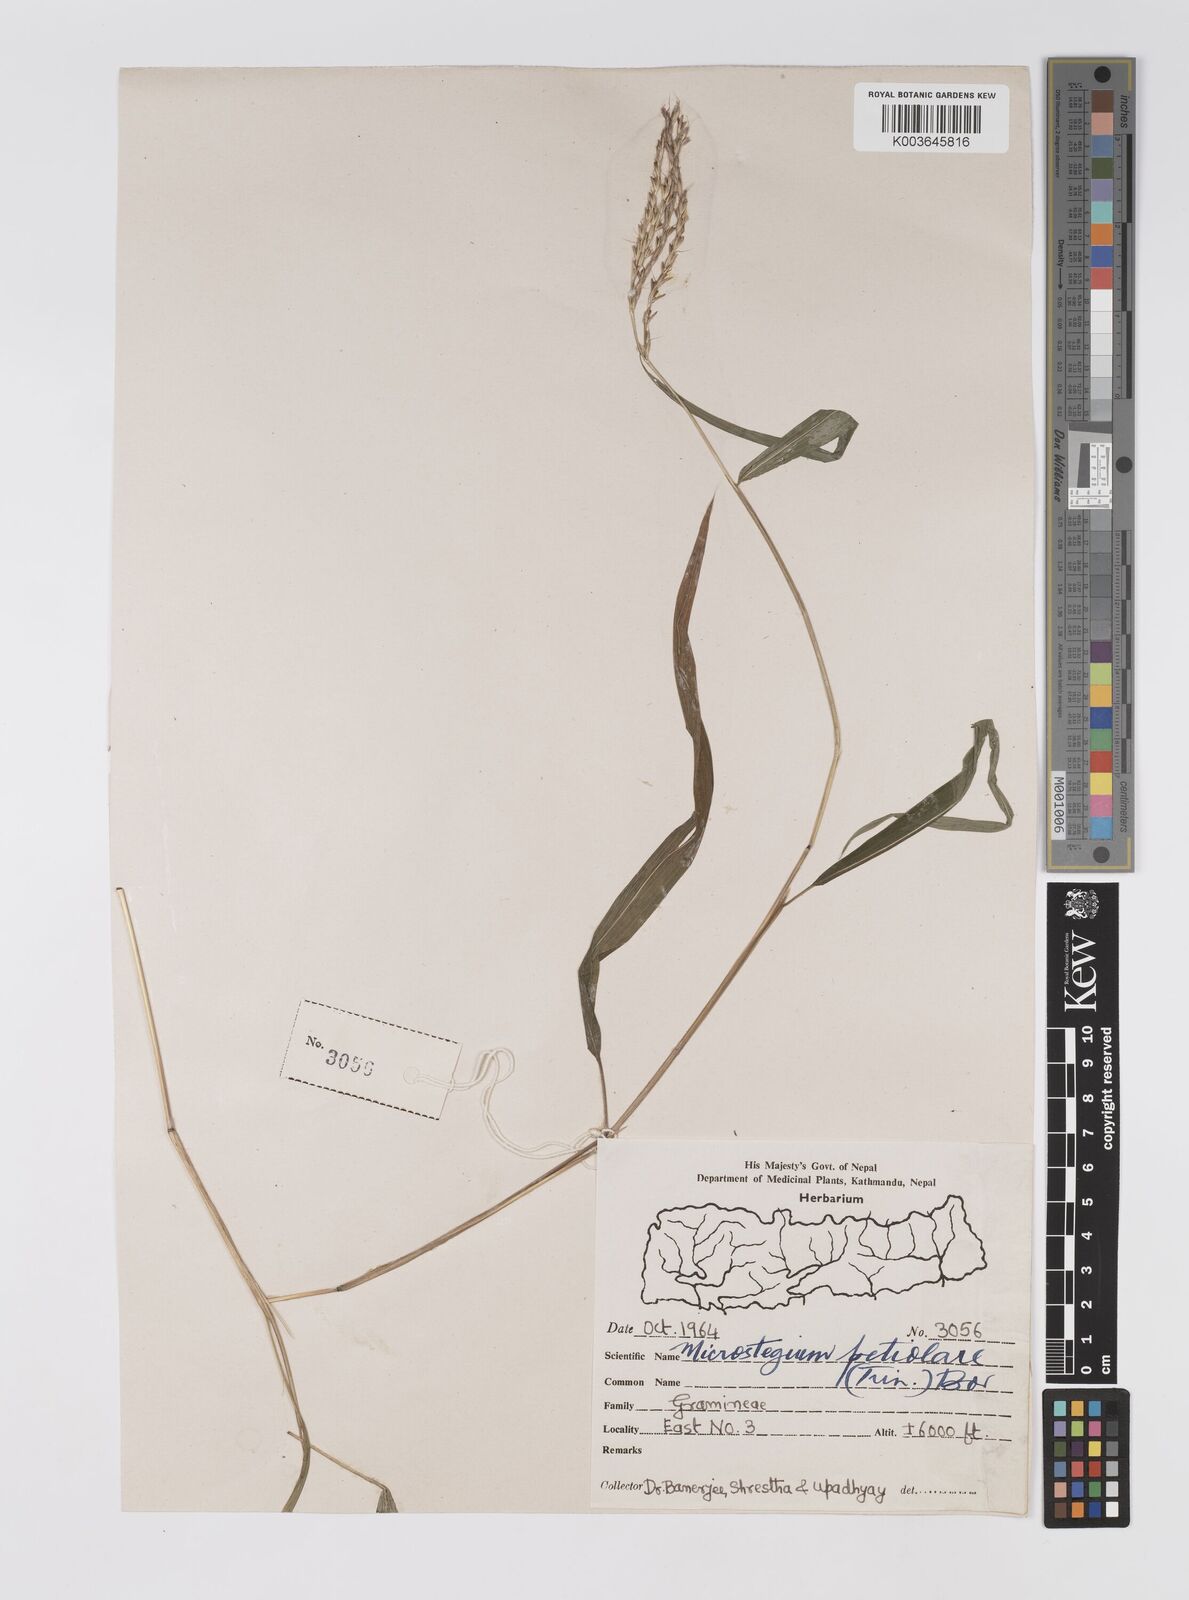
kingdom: Plantae
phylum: Tracheophyta
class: Liliopsida
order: Poales
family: Poaceae
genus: Microstegium
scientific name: Microstegium petiolare
